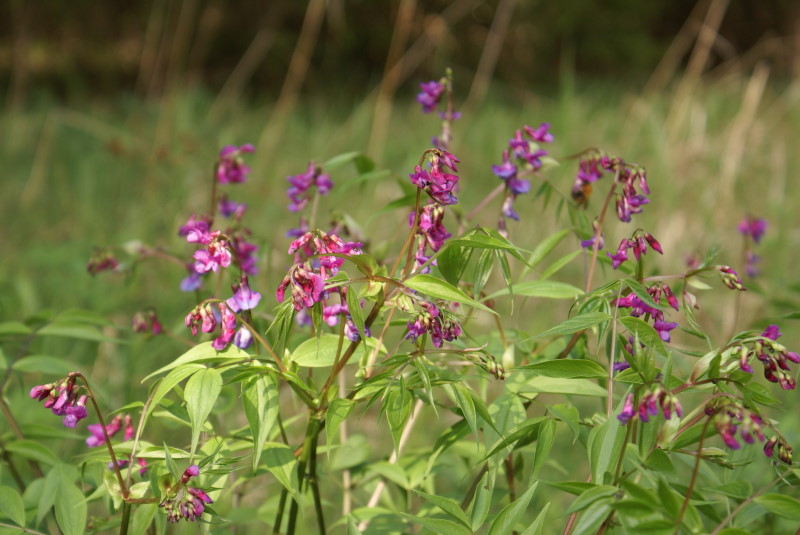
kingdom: Plantae
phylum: Tracheophyta
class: Magnoliopsida
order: Fabales
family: Fabaceae
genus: Lathyrus
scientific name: Lathyrus vernus
